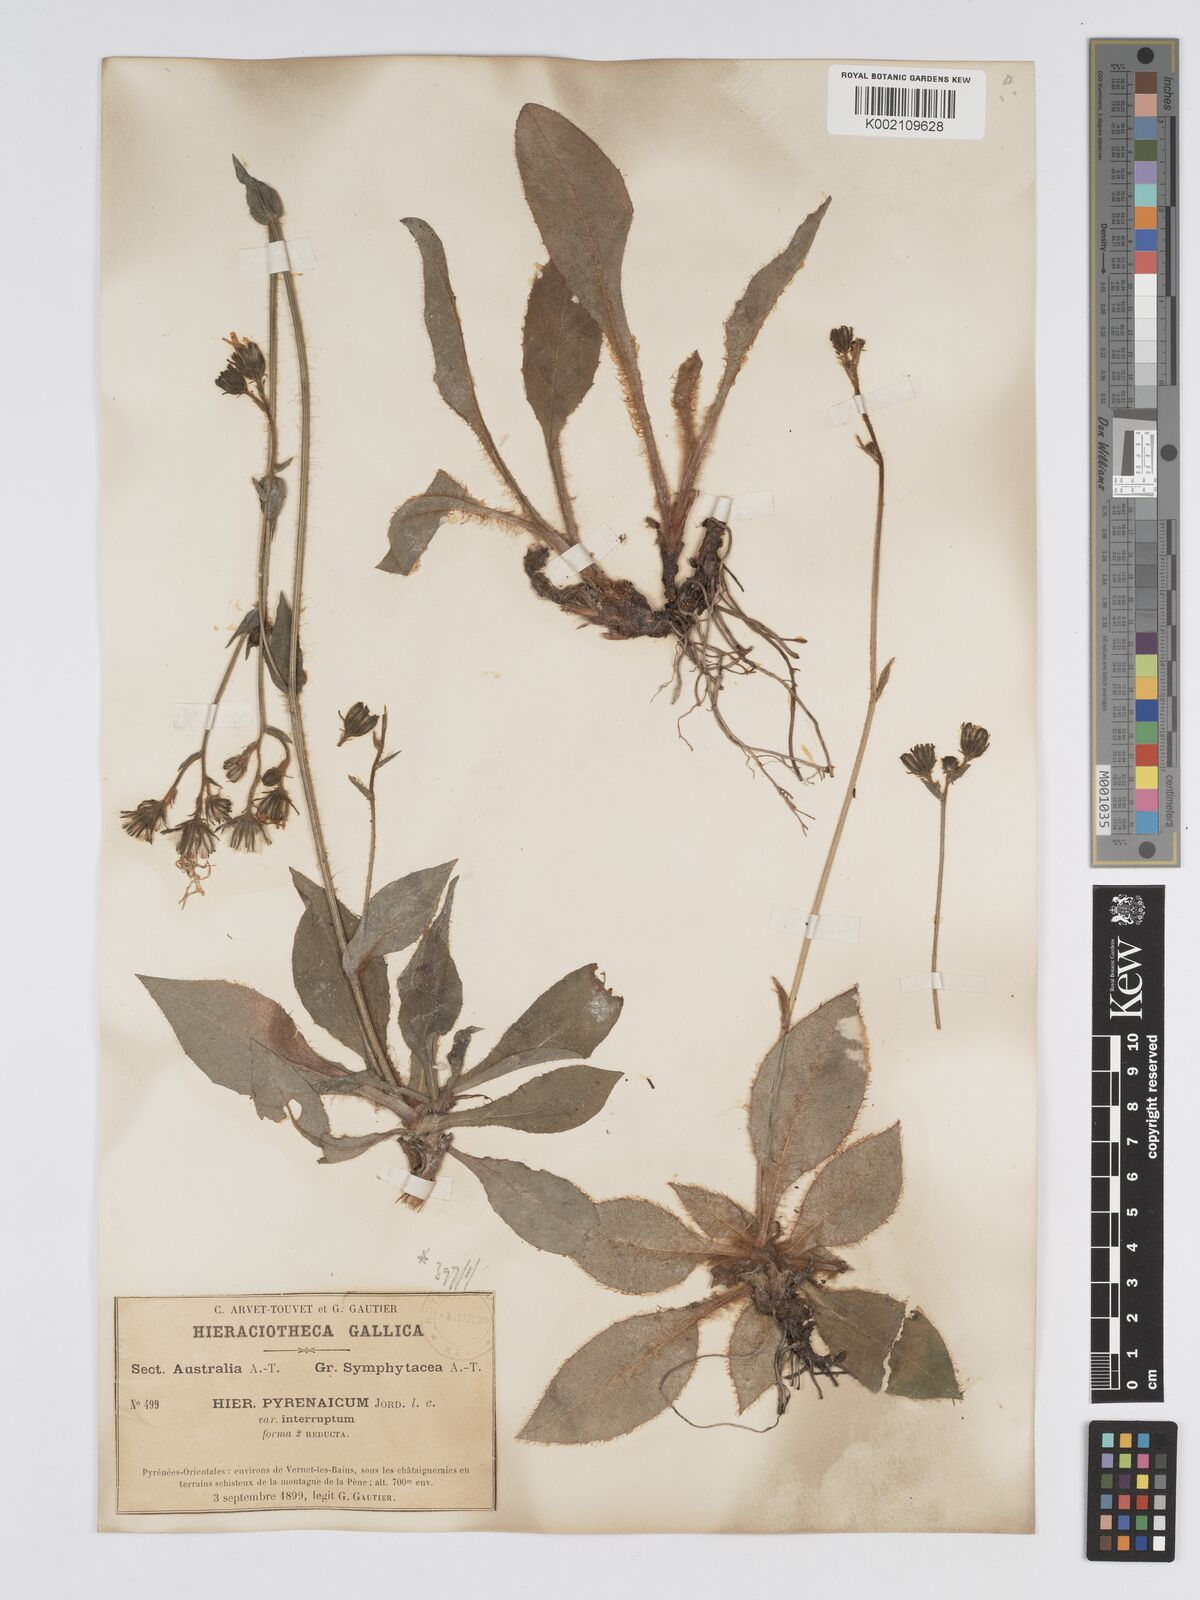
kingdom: Plantae
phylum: Tracheophyta
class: Magnoliopsida
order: Asterales
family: Asteraceae
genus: Hieracium
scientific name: Hieracium nobile
